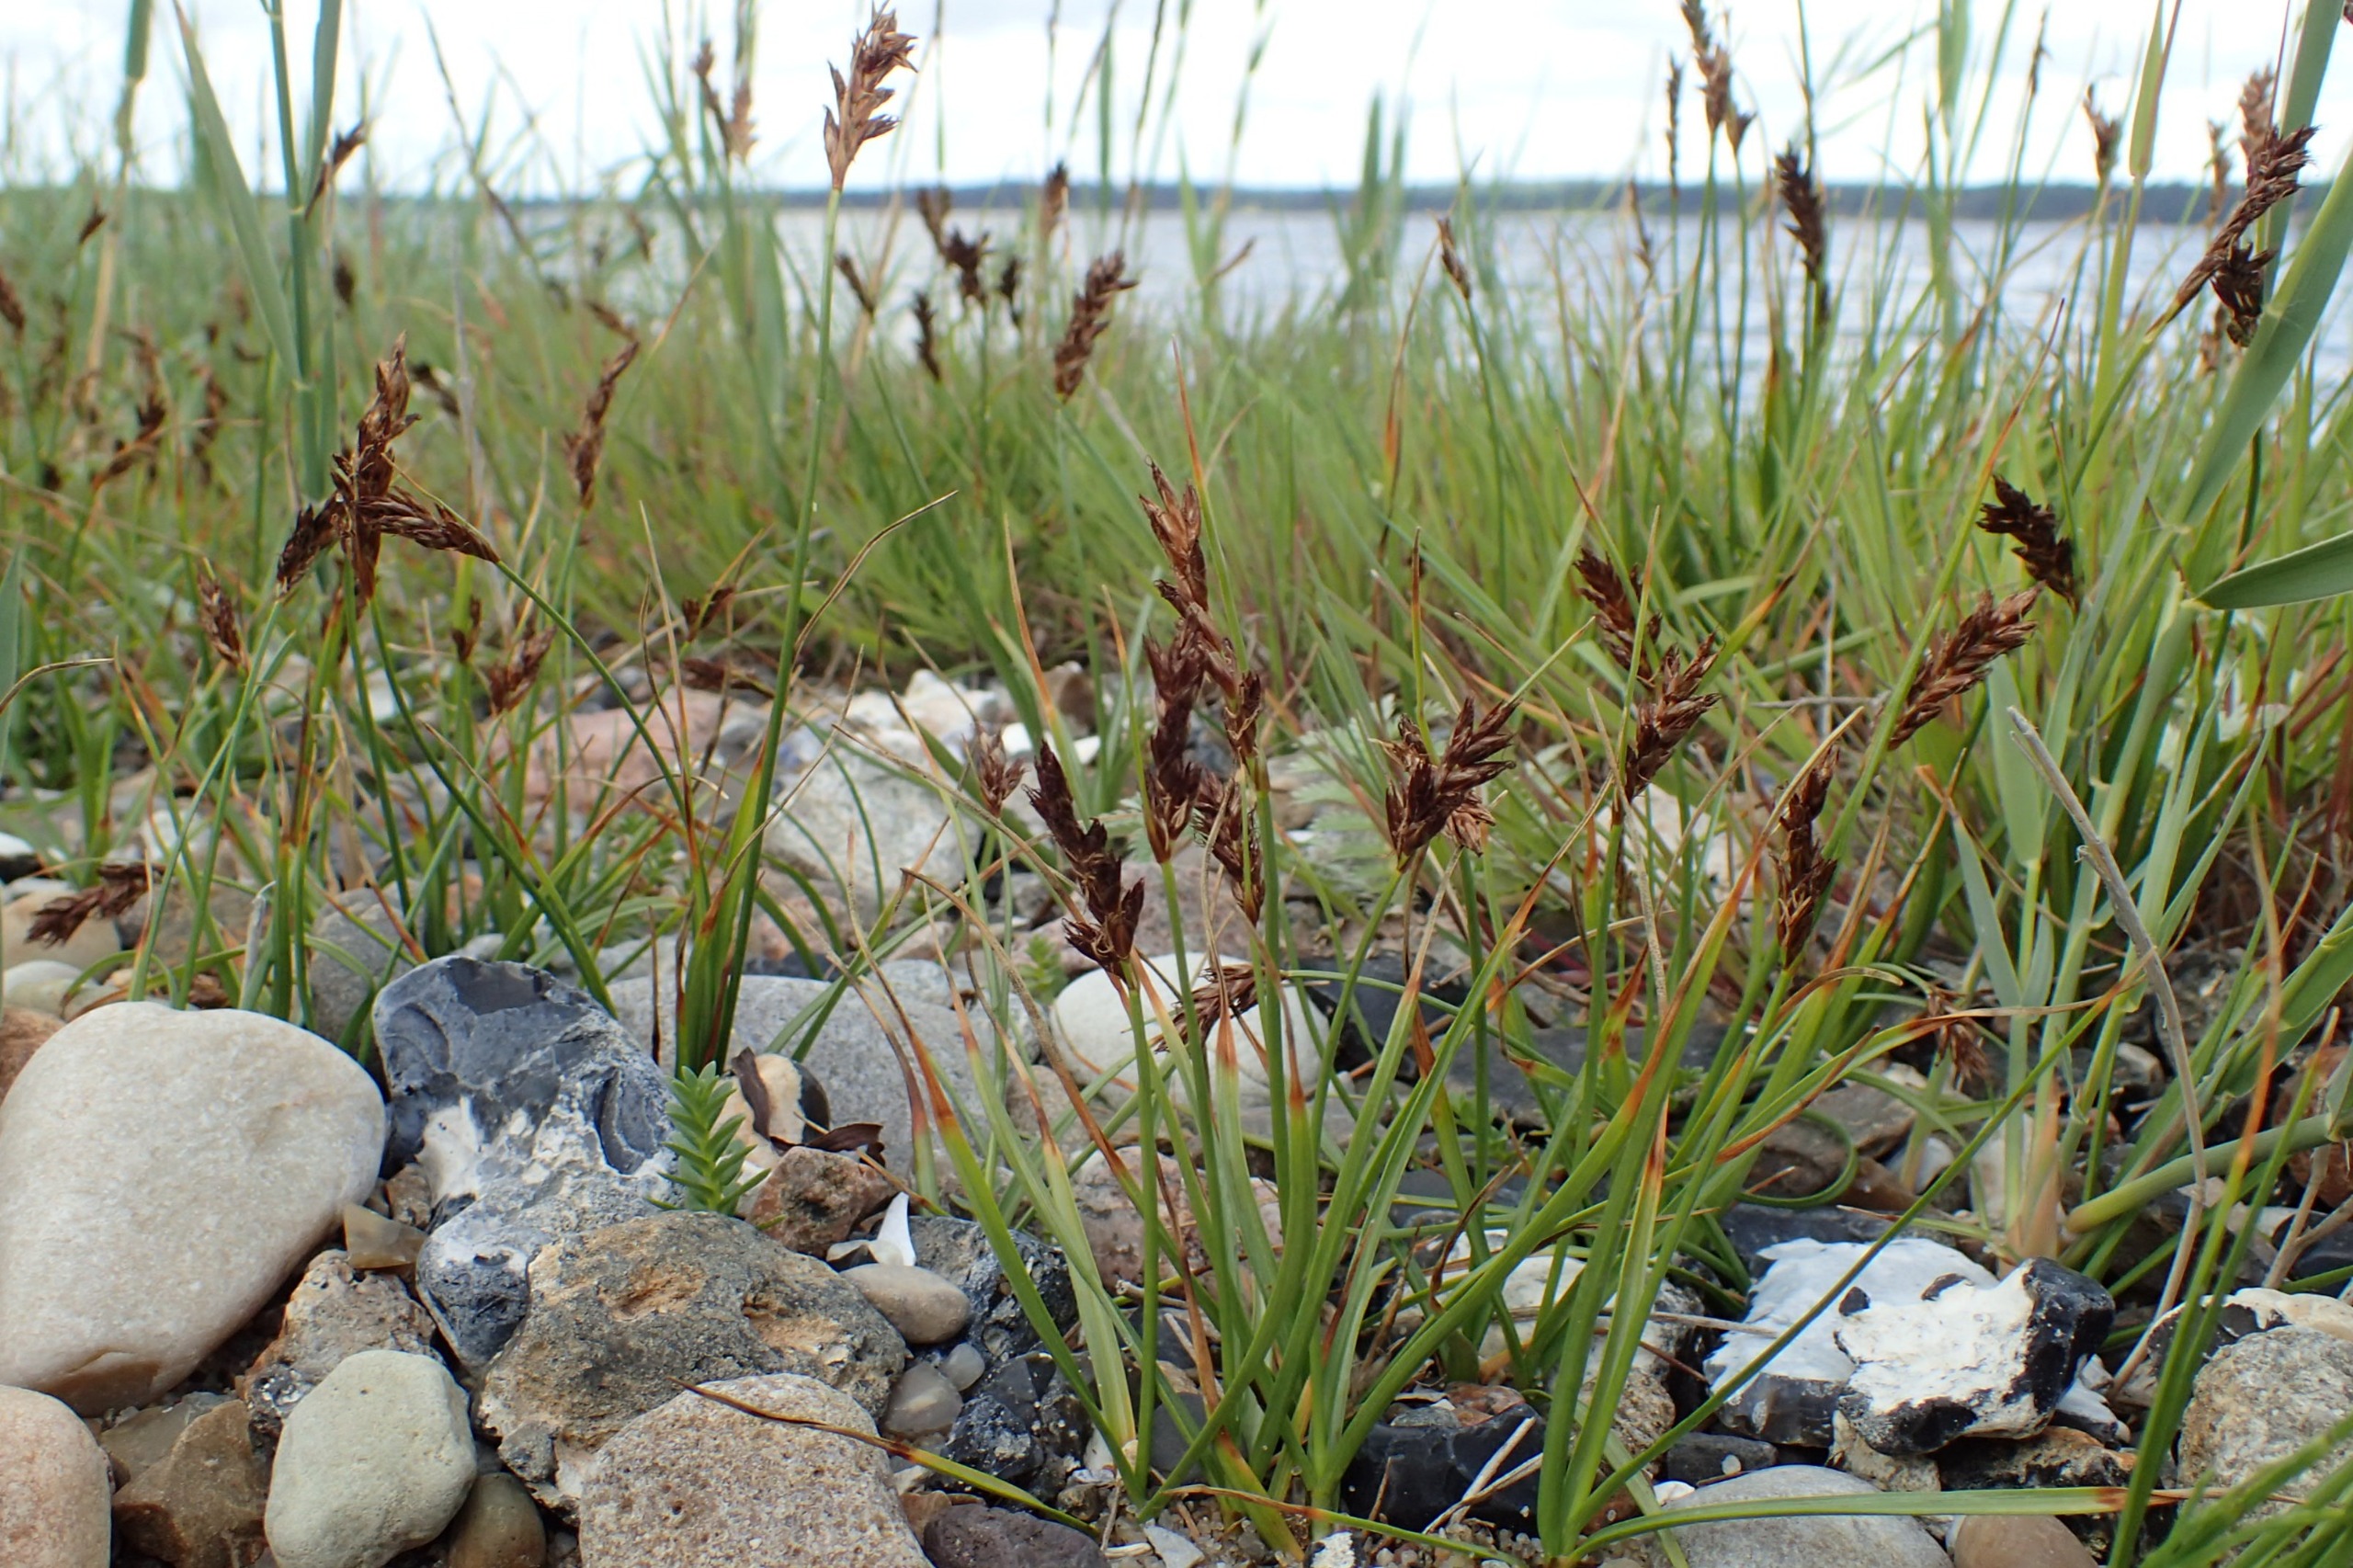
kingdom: Plantae
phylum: Tracheophyta
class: Liliopsida
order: Poales
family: Cyperaceae
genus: Blysmus
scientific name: Blysmus compressus
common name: Fladtrykt kogleaks
